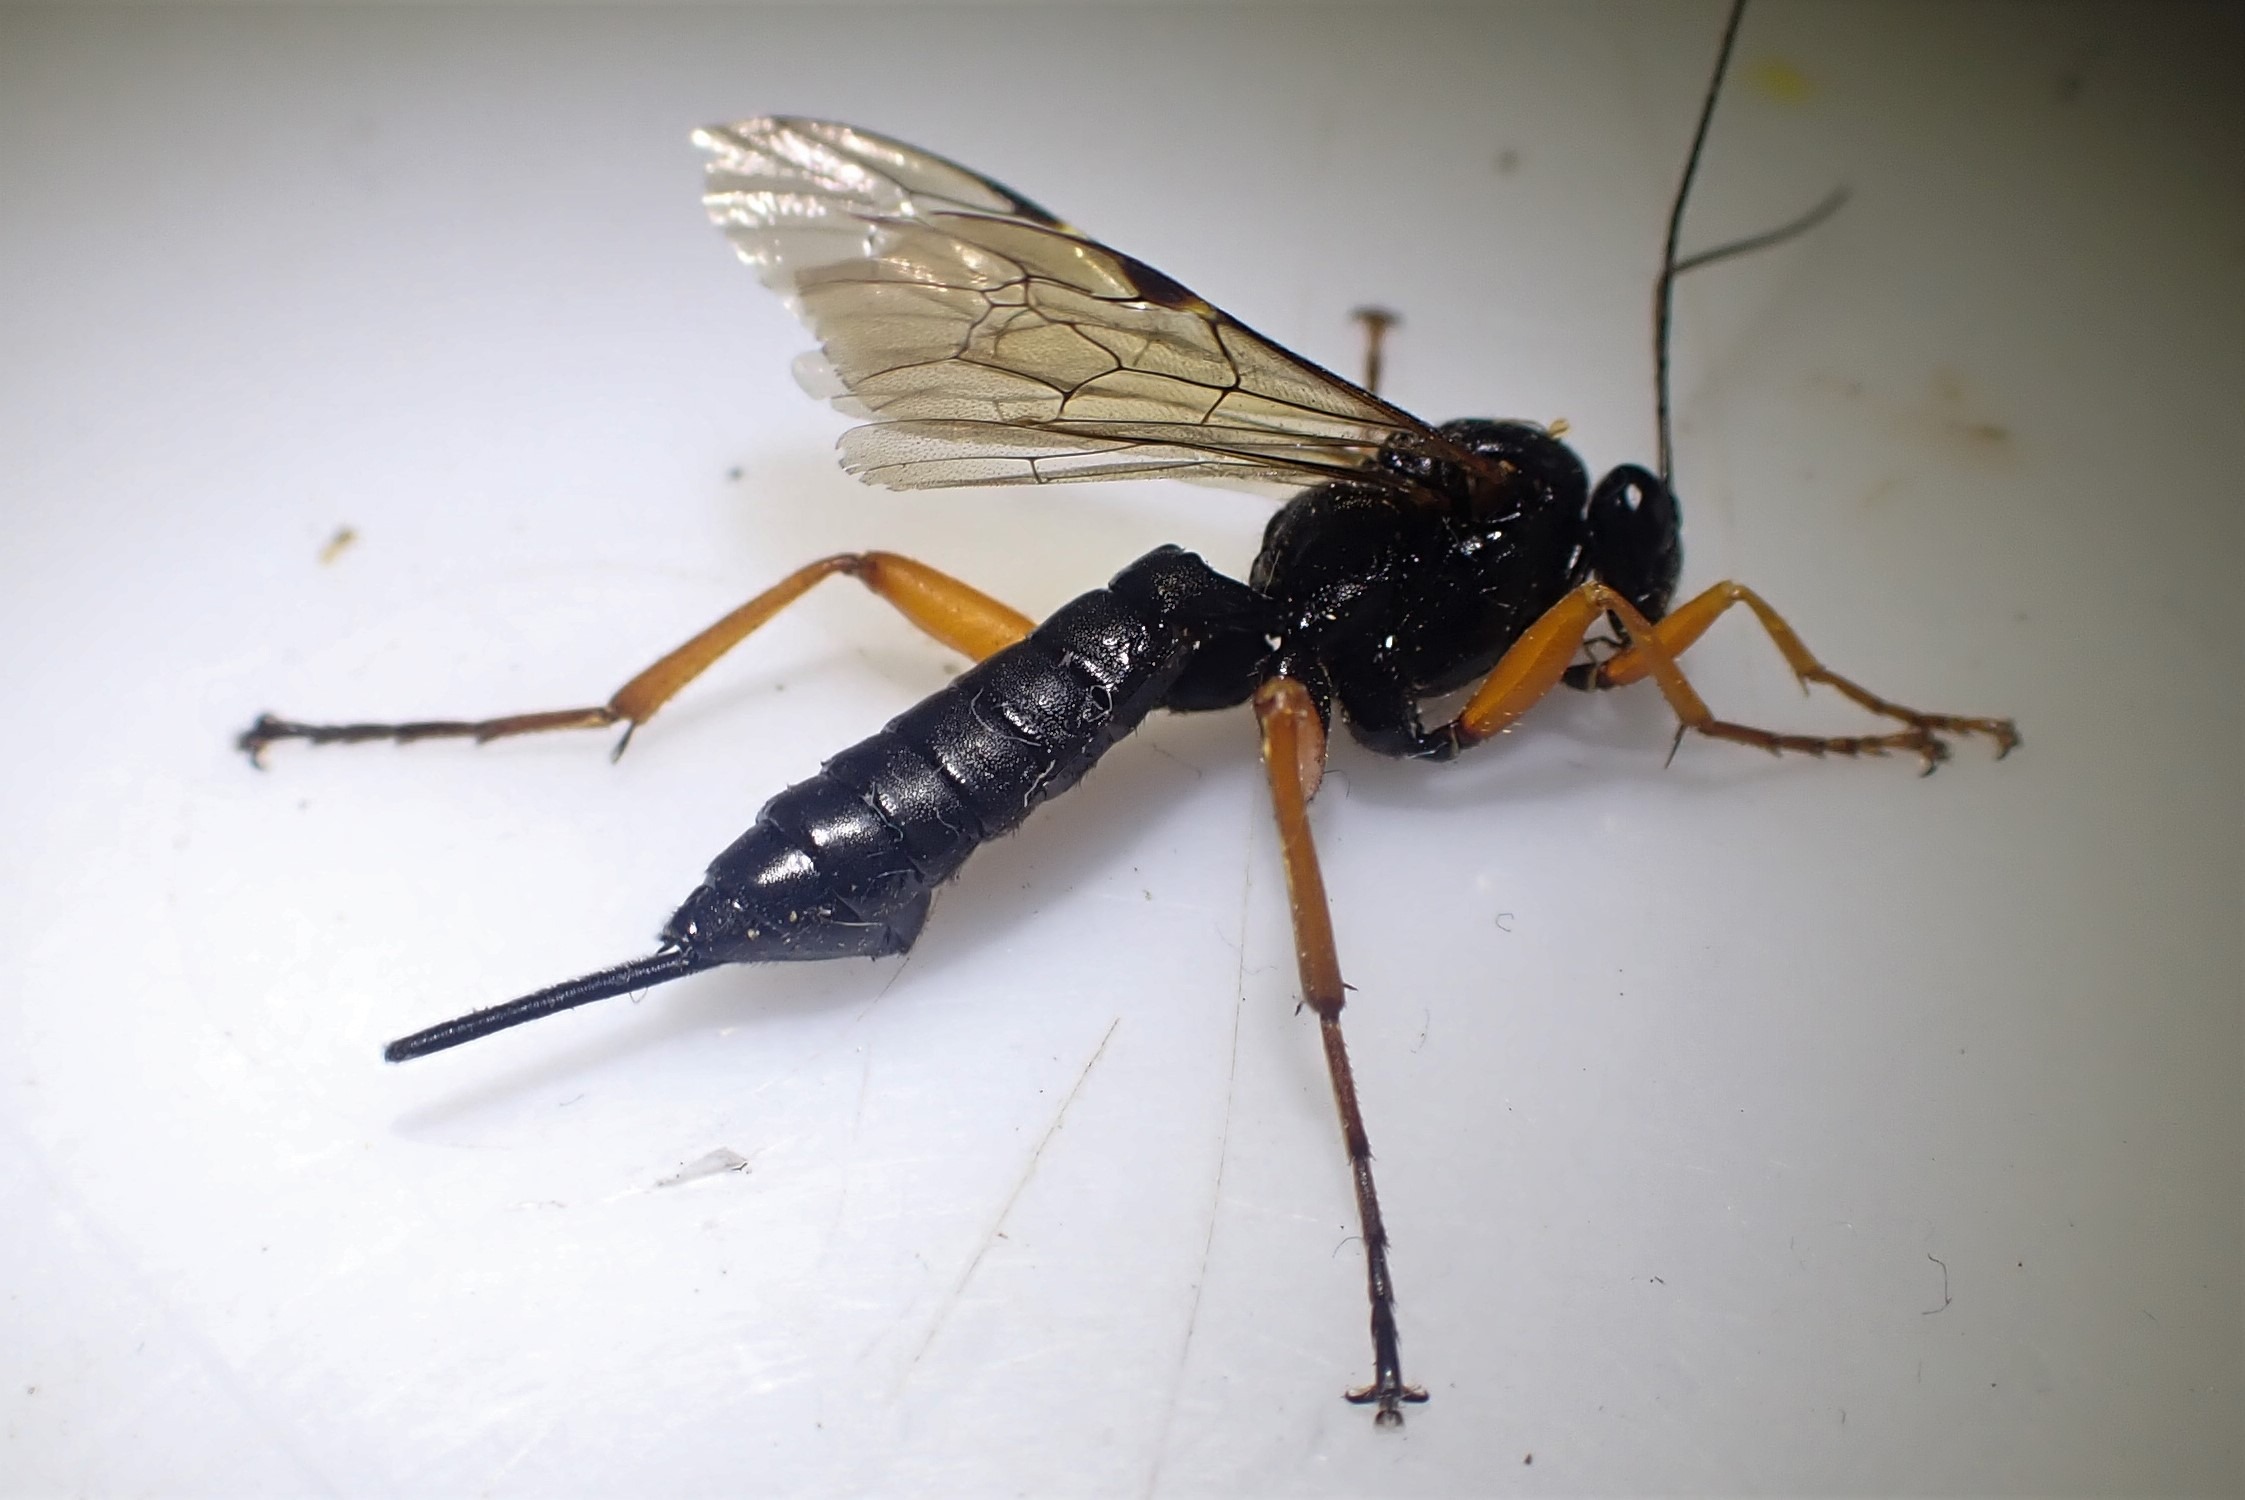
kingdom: Animalia
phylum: Arthropoda
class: Insecta
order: Hymenoptera
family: Ichneumonidae
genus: Pimpla
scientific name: Pimpla rufipes
